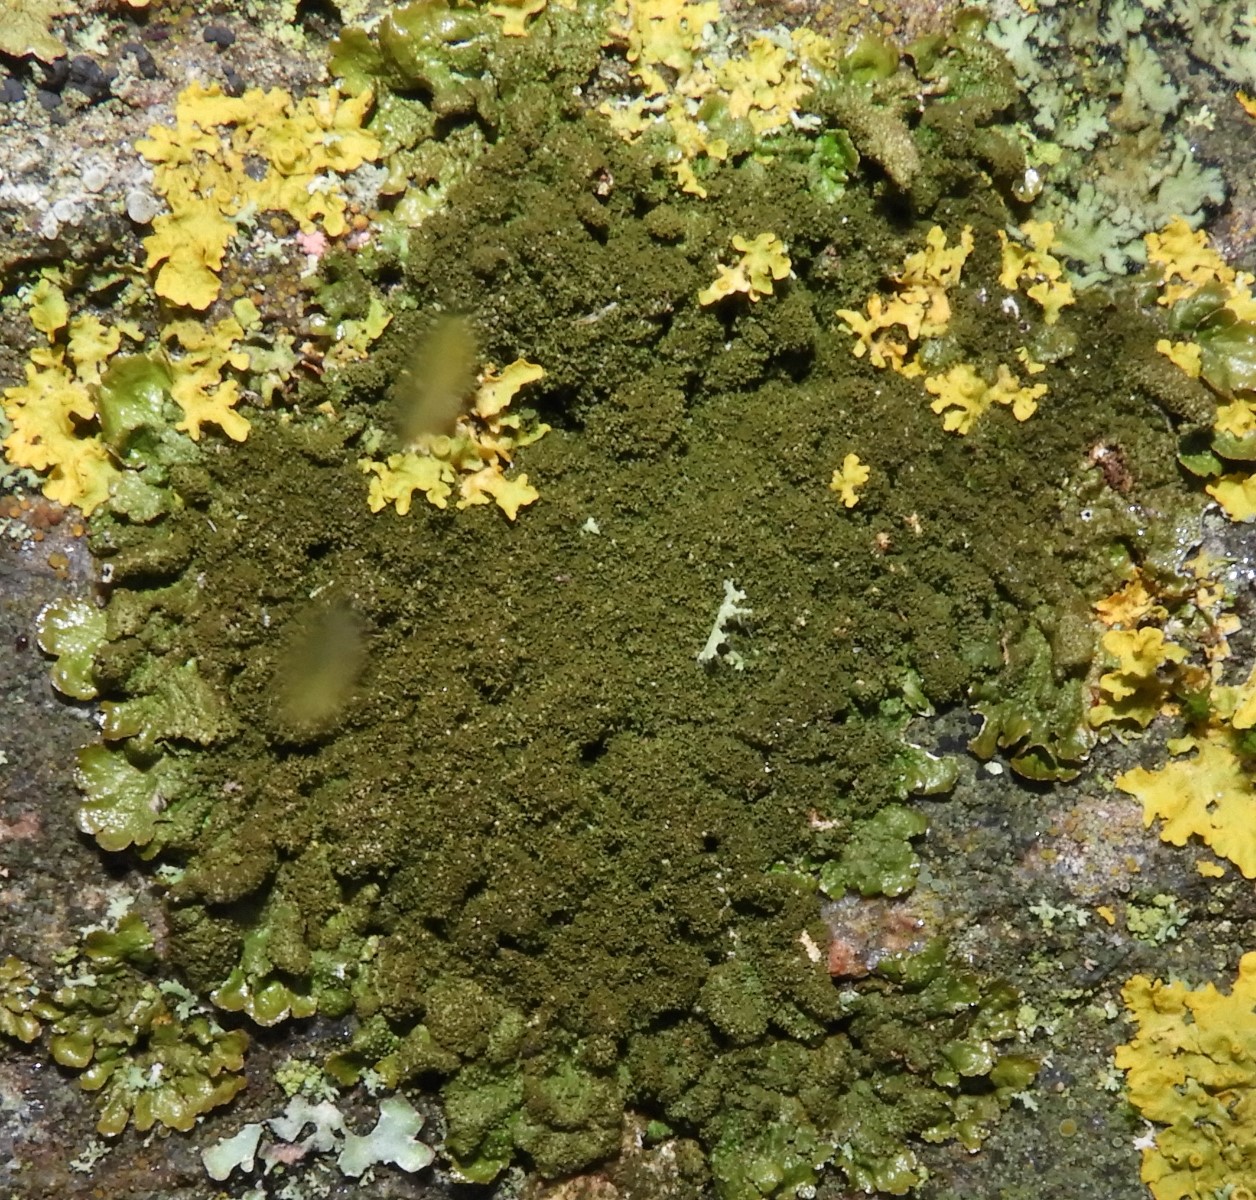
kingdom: Fungi
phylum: Ascomycota
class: Lecanoromycetes
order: Lecanorales
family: Parmeliaceae
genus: Melanelixia
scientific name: Melanelixia glabratula
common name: glinsende skållav
